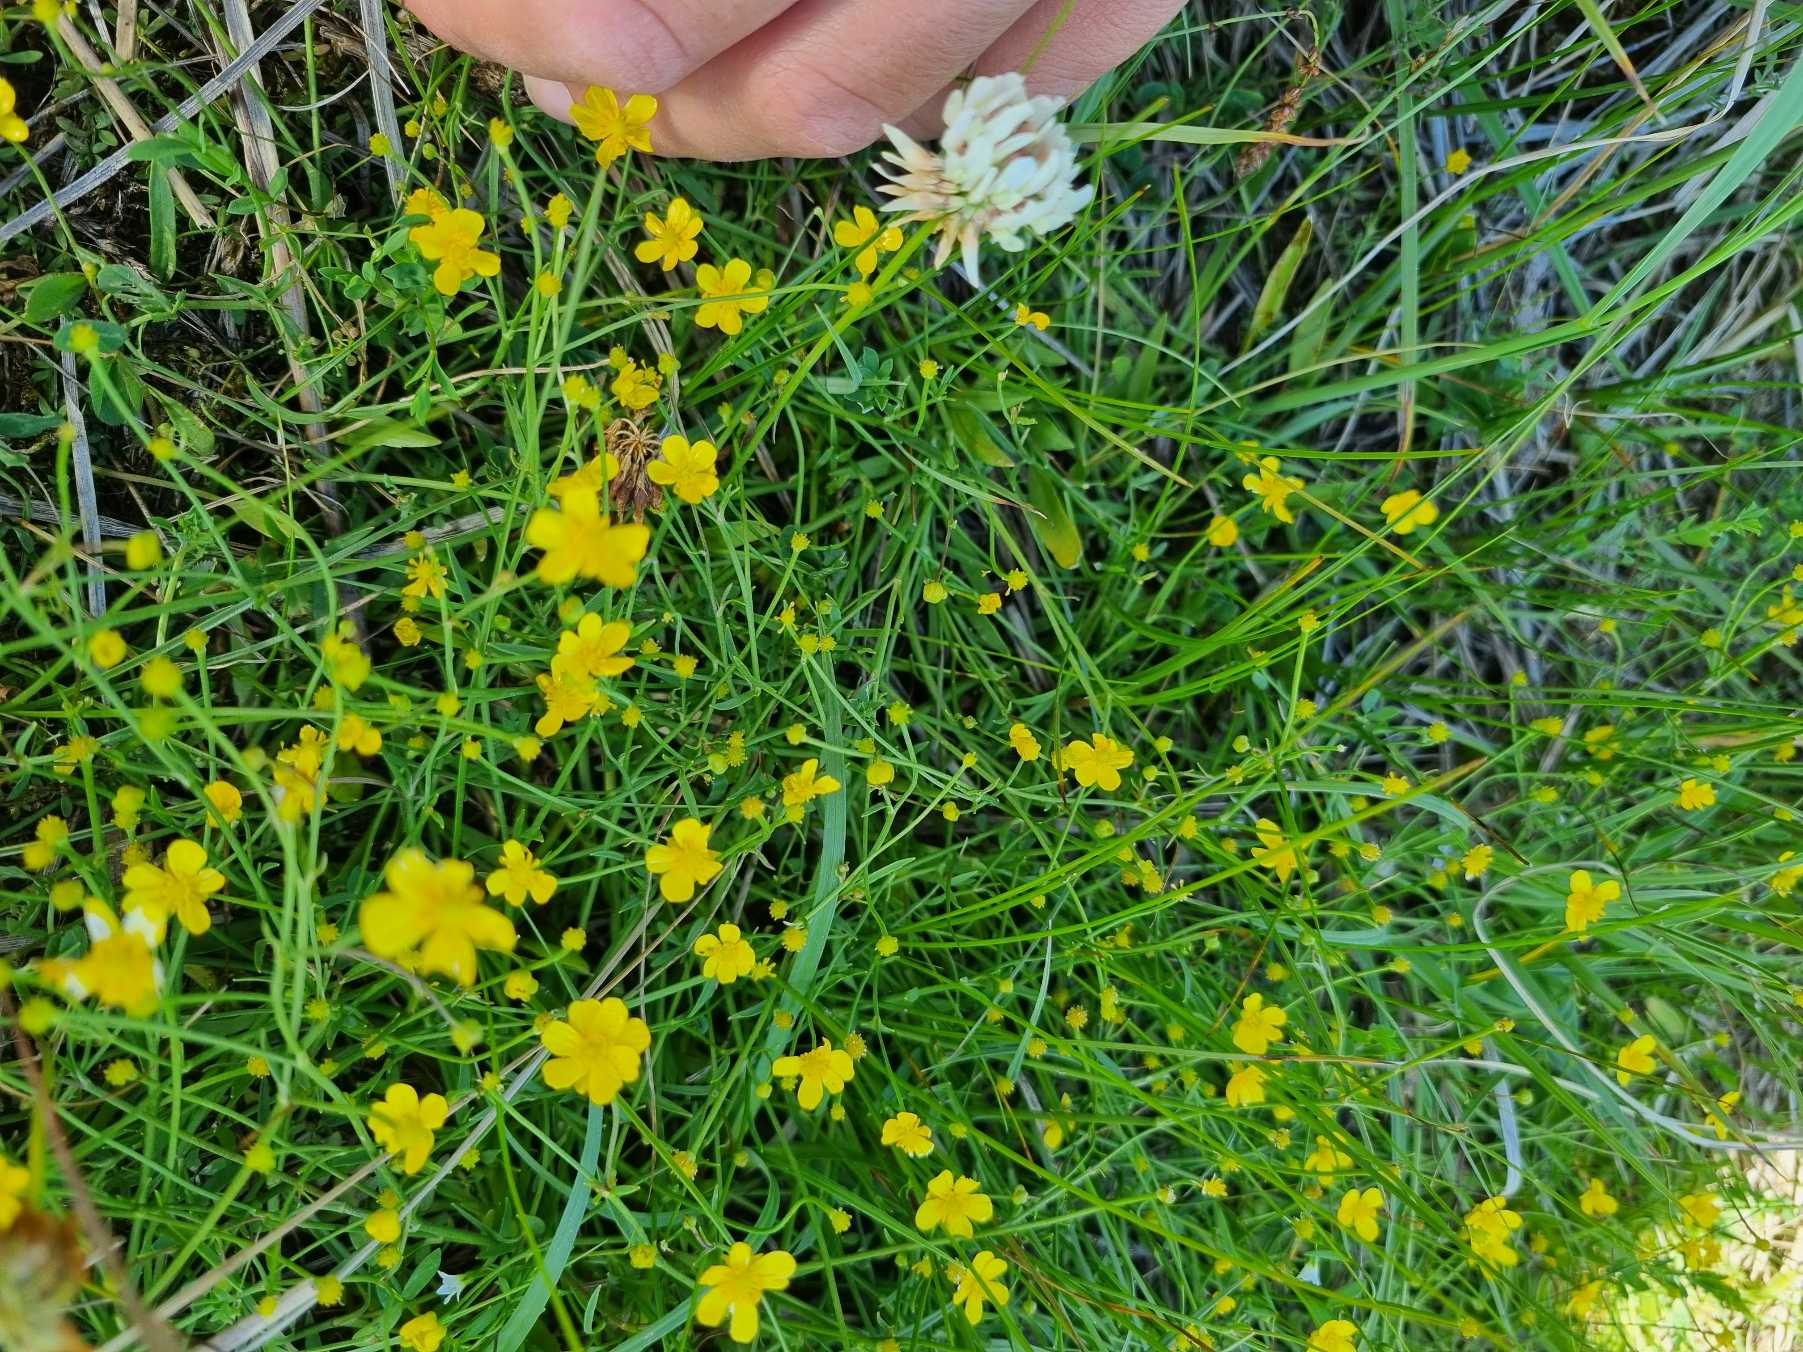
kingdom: Plantae
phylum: Tracheophyta
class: Magnoliopsida
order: Ranunculales
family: Ranunculaceae
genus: Ranunculus
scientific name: Ranunculus flammula
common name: Kær-ranunkel
